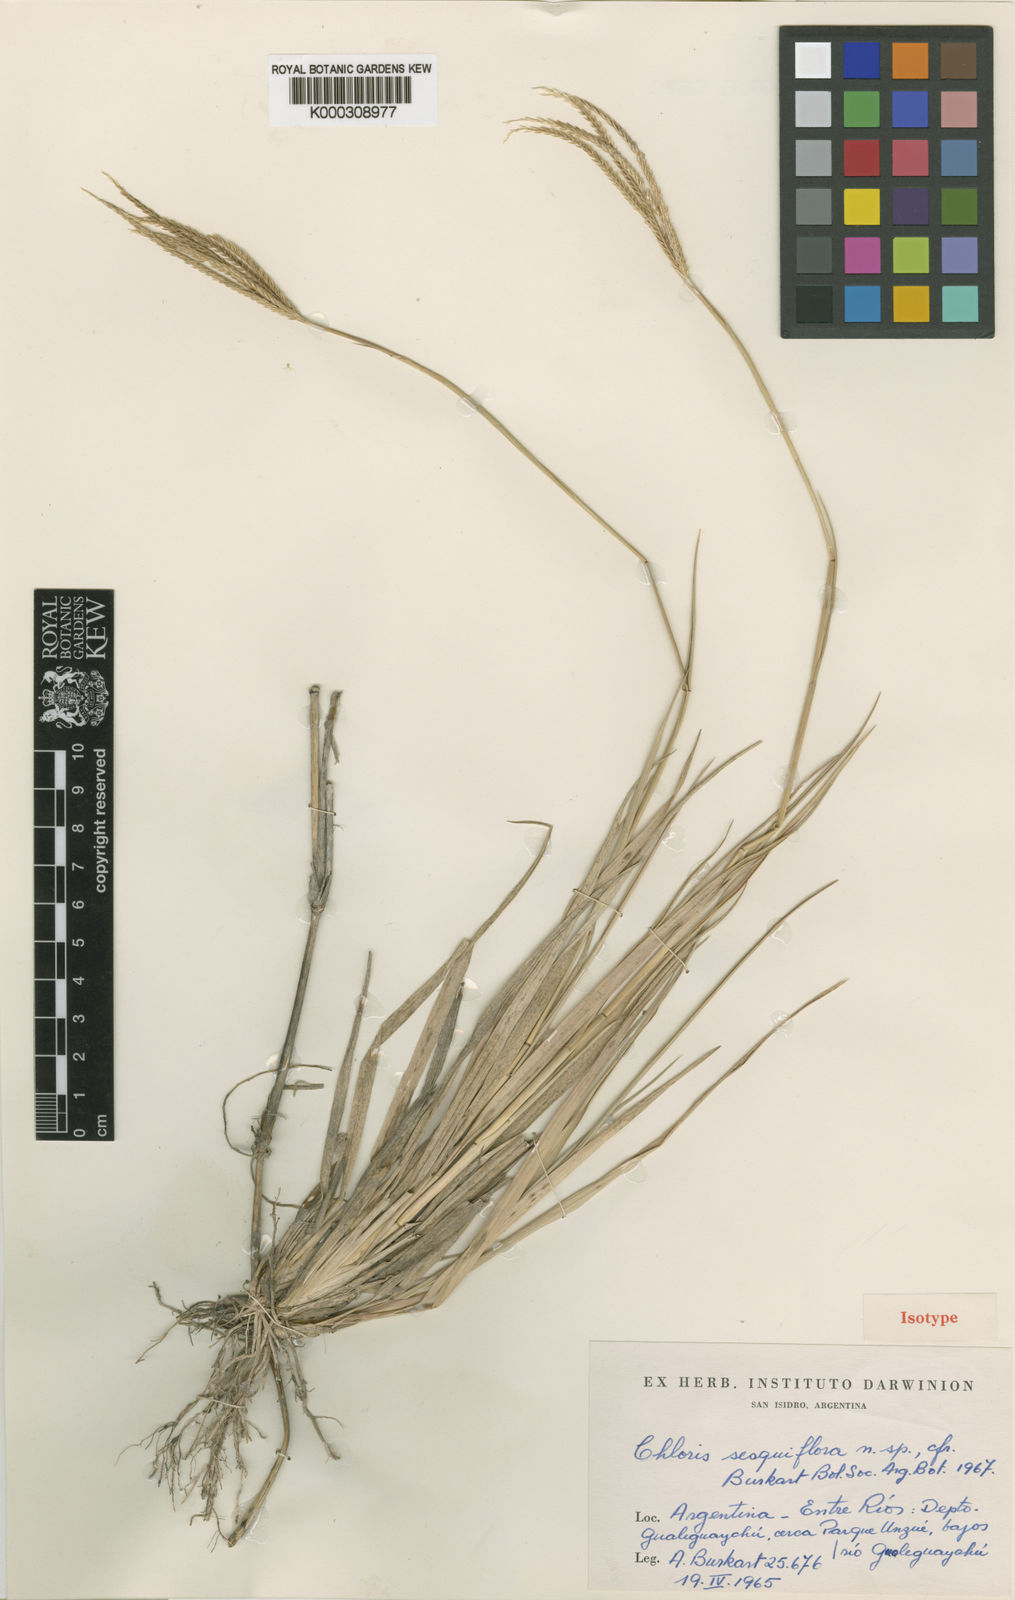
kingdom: Plantae
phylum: Tracheophyta
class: Liliopsida
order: Poales
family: Poaceae
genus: Chloris
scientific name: Chloris sesquiflora
